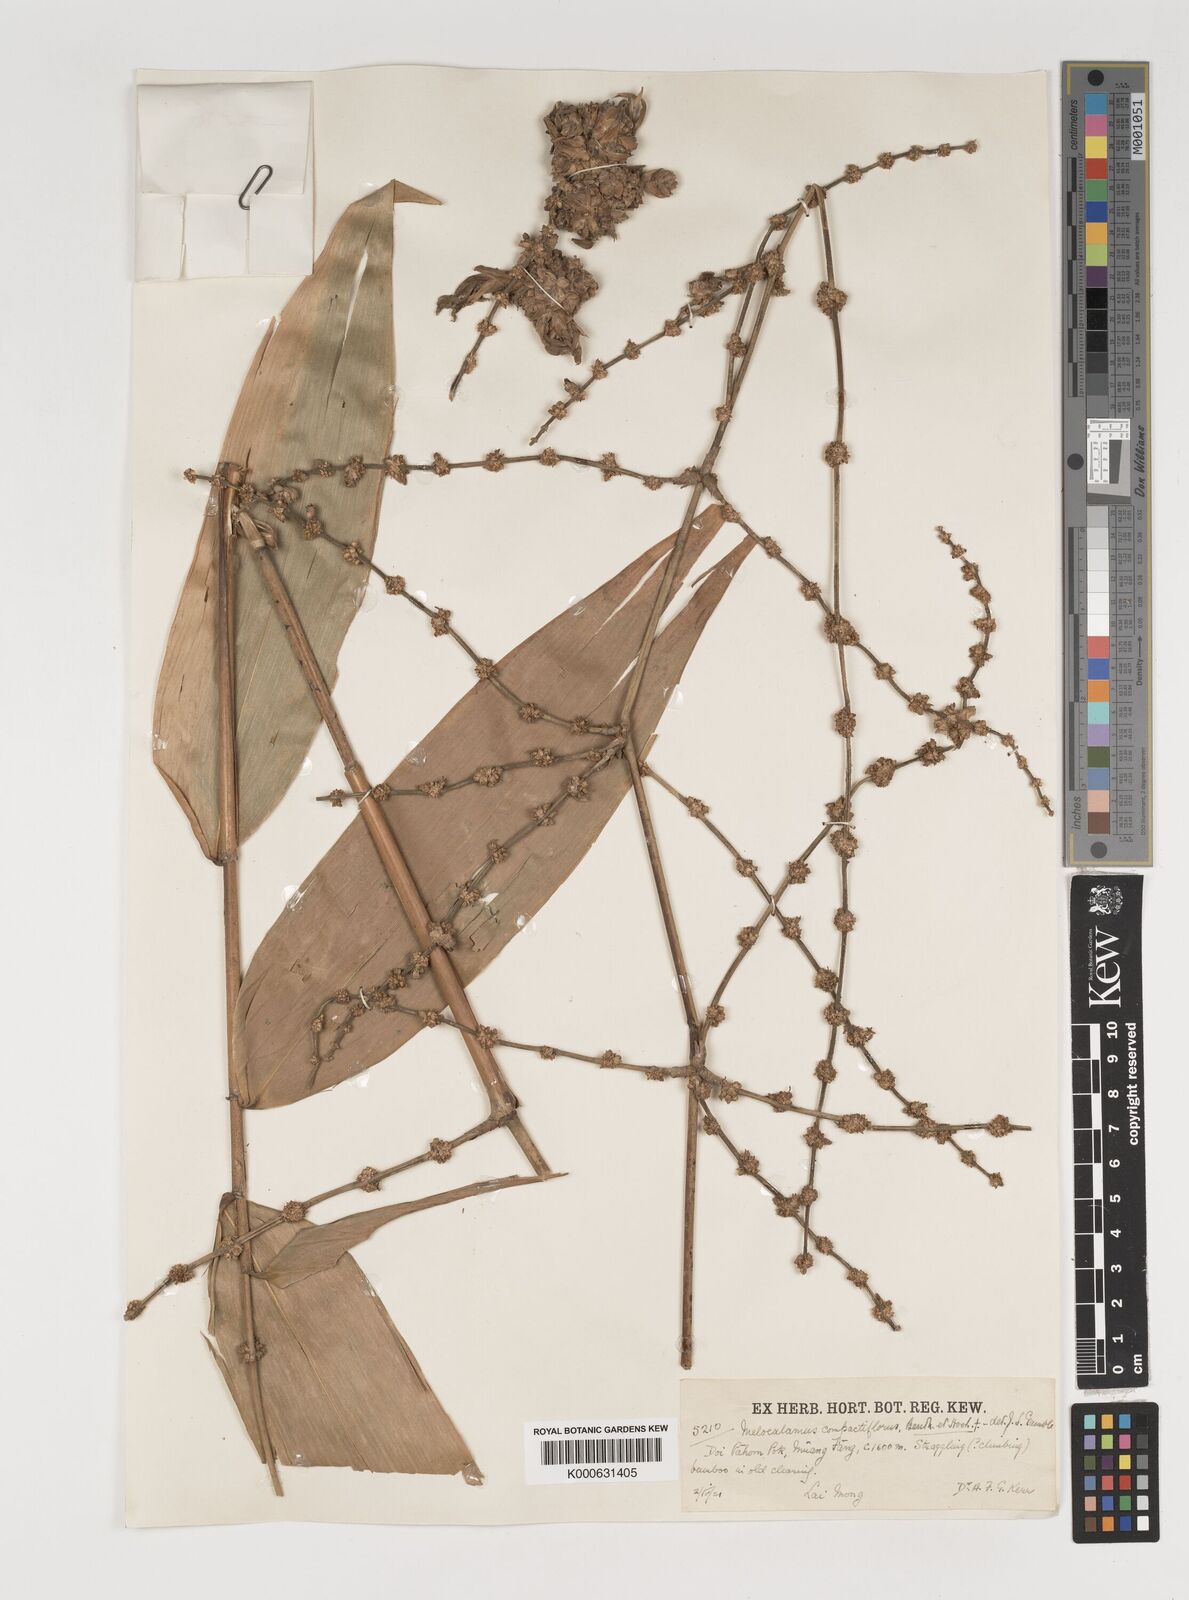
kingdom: Plantae
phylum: Tracheophyta
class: Liliopsida
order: Poales
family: Poaceae
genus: Melocalamus
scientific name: Melocalamus compactiflorus
